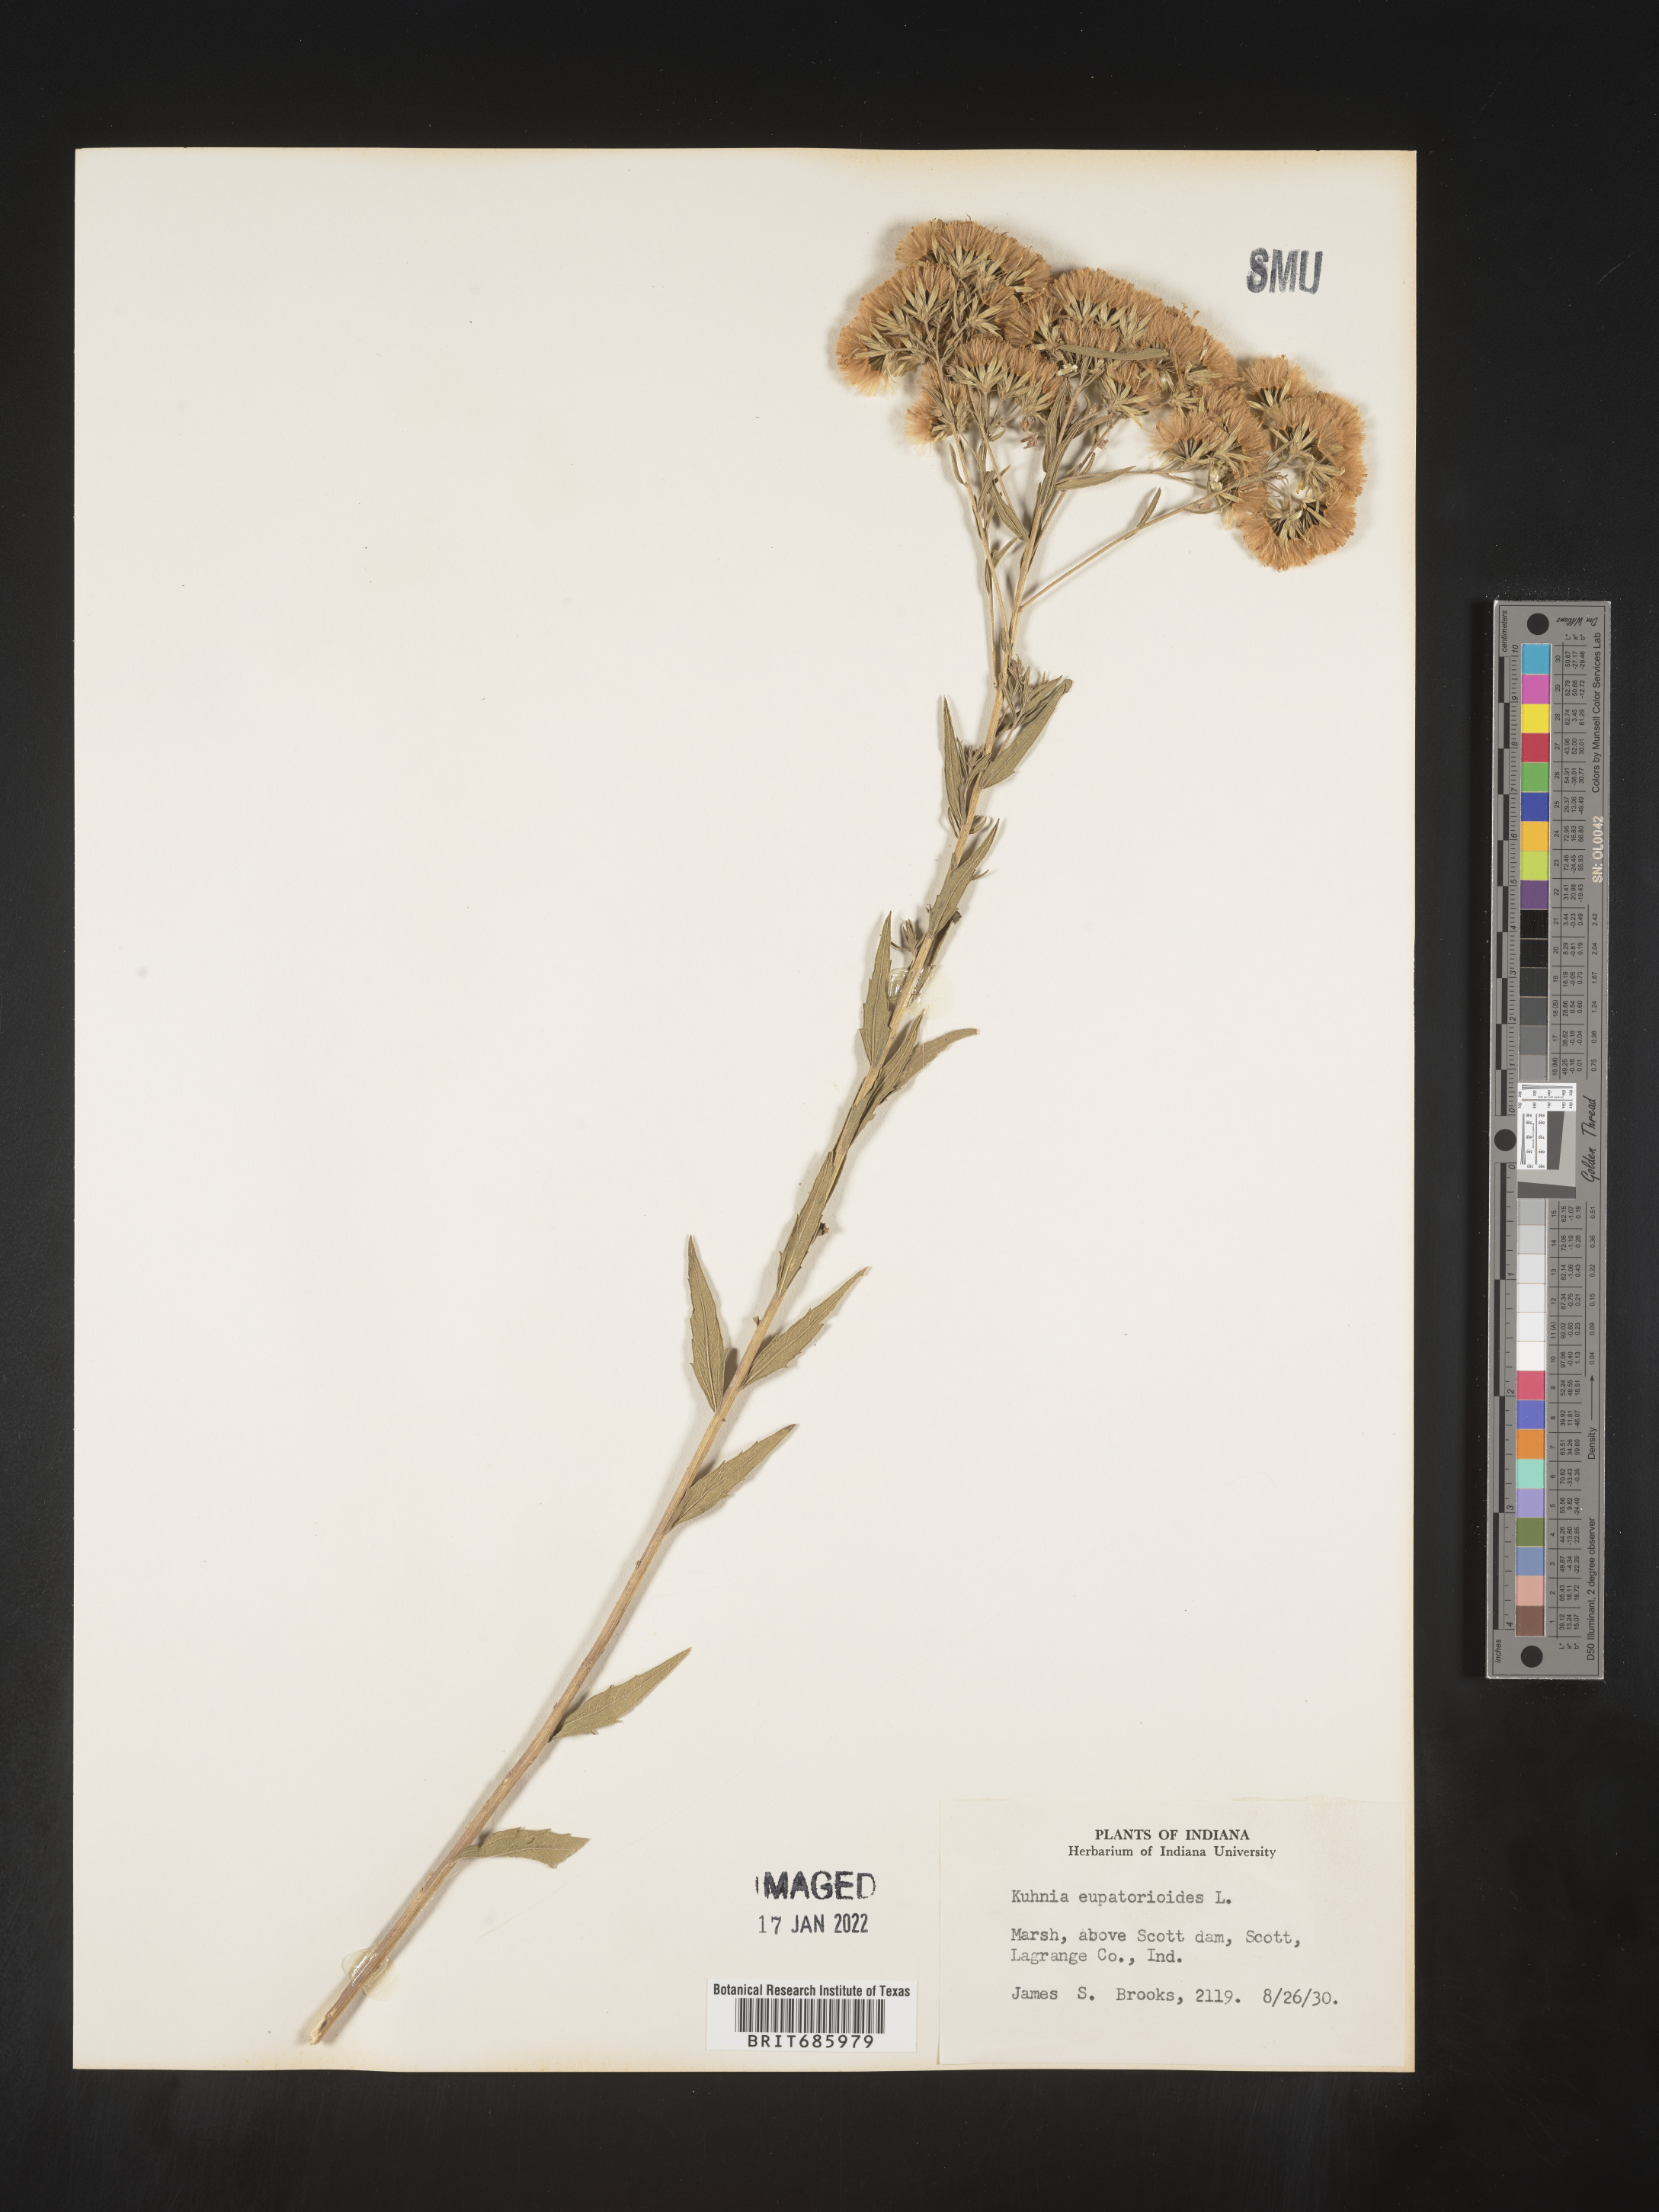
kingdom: Plantae
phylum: Tracheophyta
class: Magnoliopsida
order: Asterales
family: Asteraceae
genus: Brickellia
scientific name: Brickellia eupatorioides
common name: False boneset
